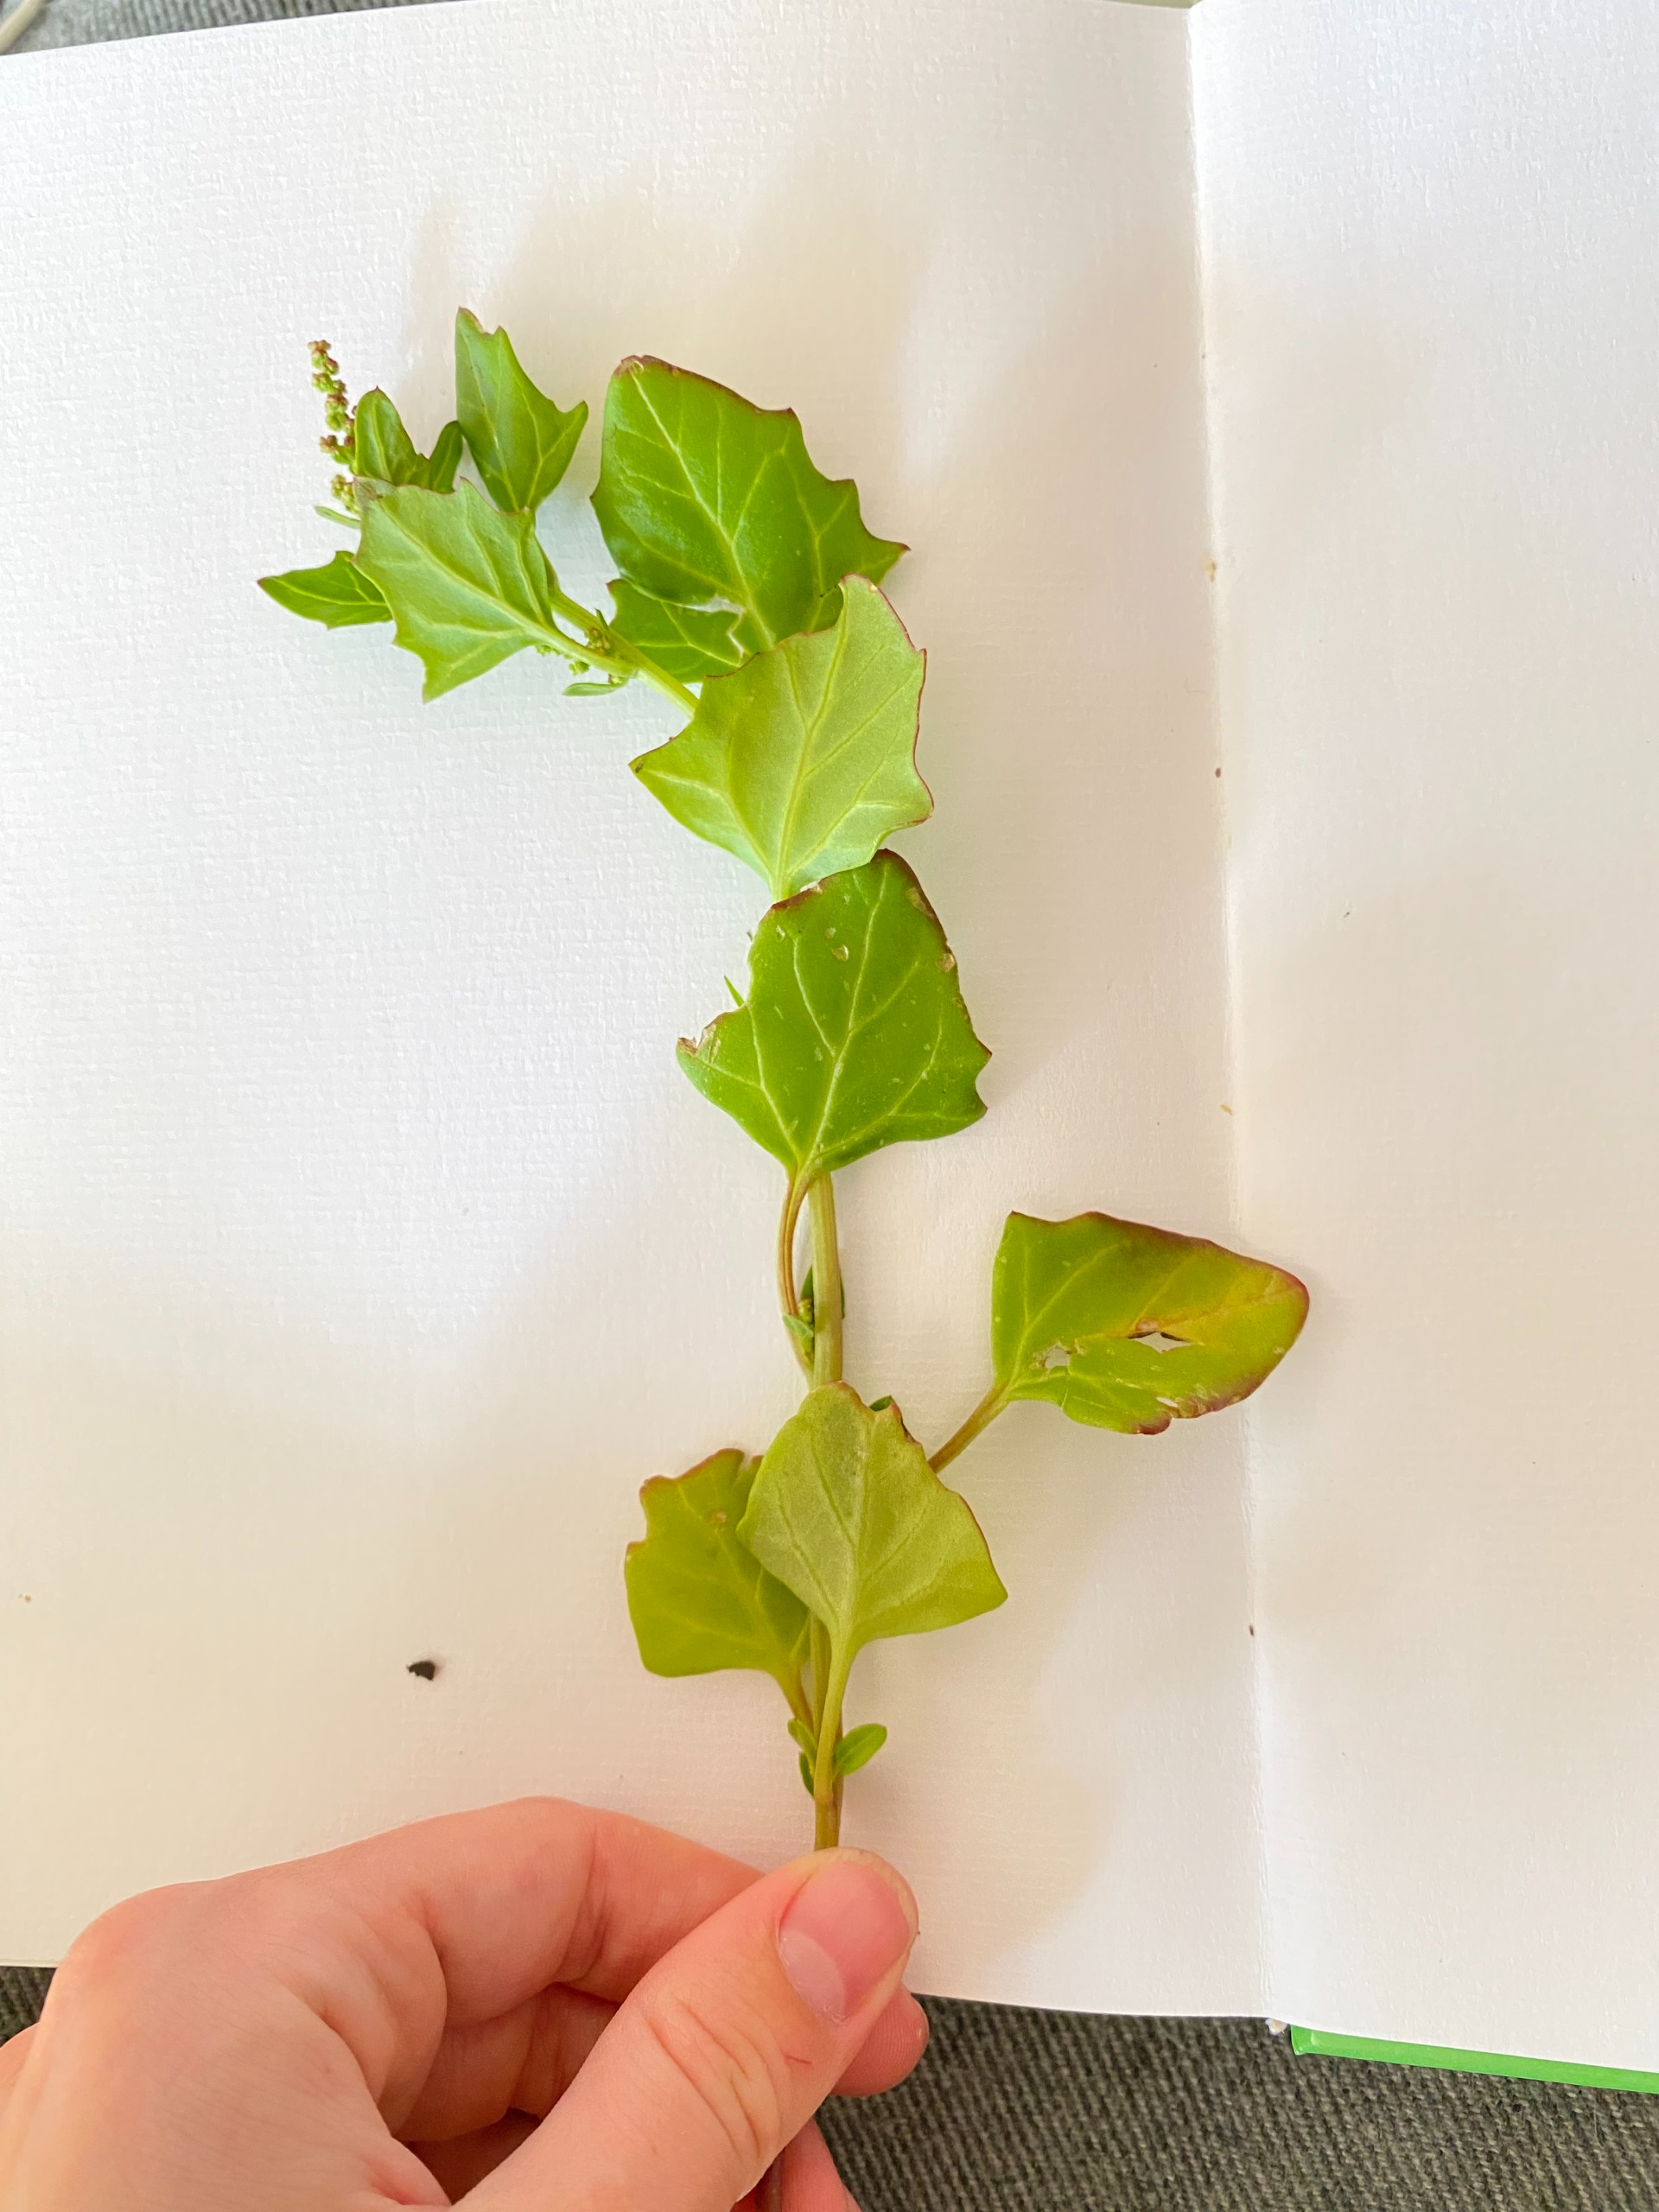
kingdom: Plantae
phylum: Tracheophyta
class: Magnoliopsida
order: Caryophyllales
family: Amaranthaceae
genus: Oxybasis
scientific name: Oxybasis rubra
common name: Rød gåsefod
